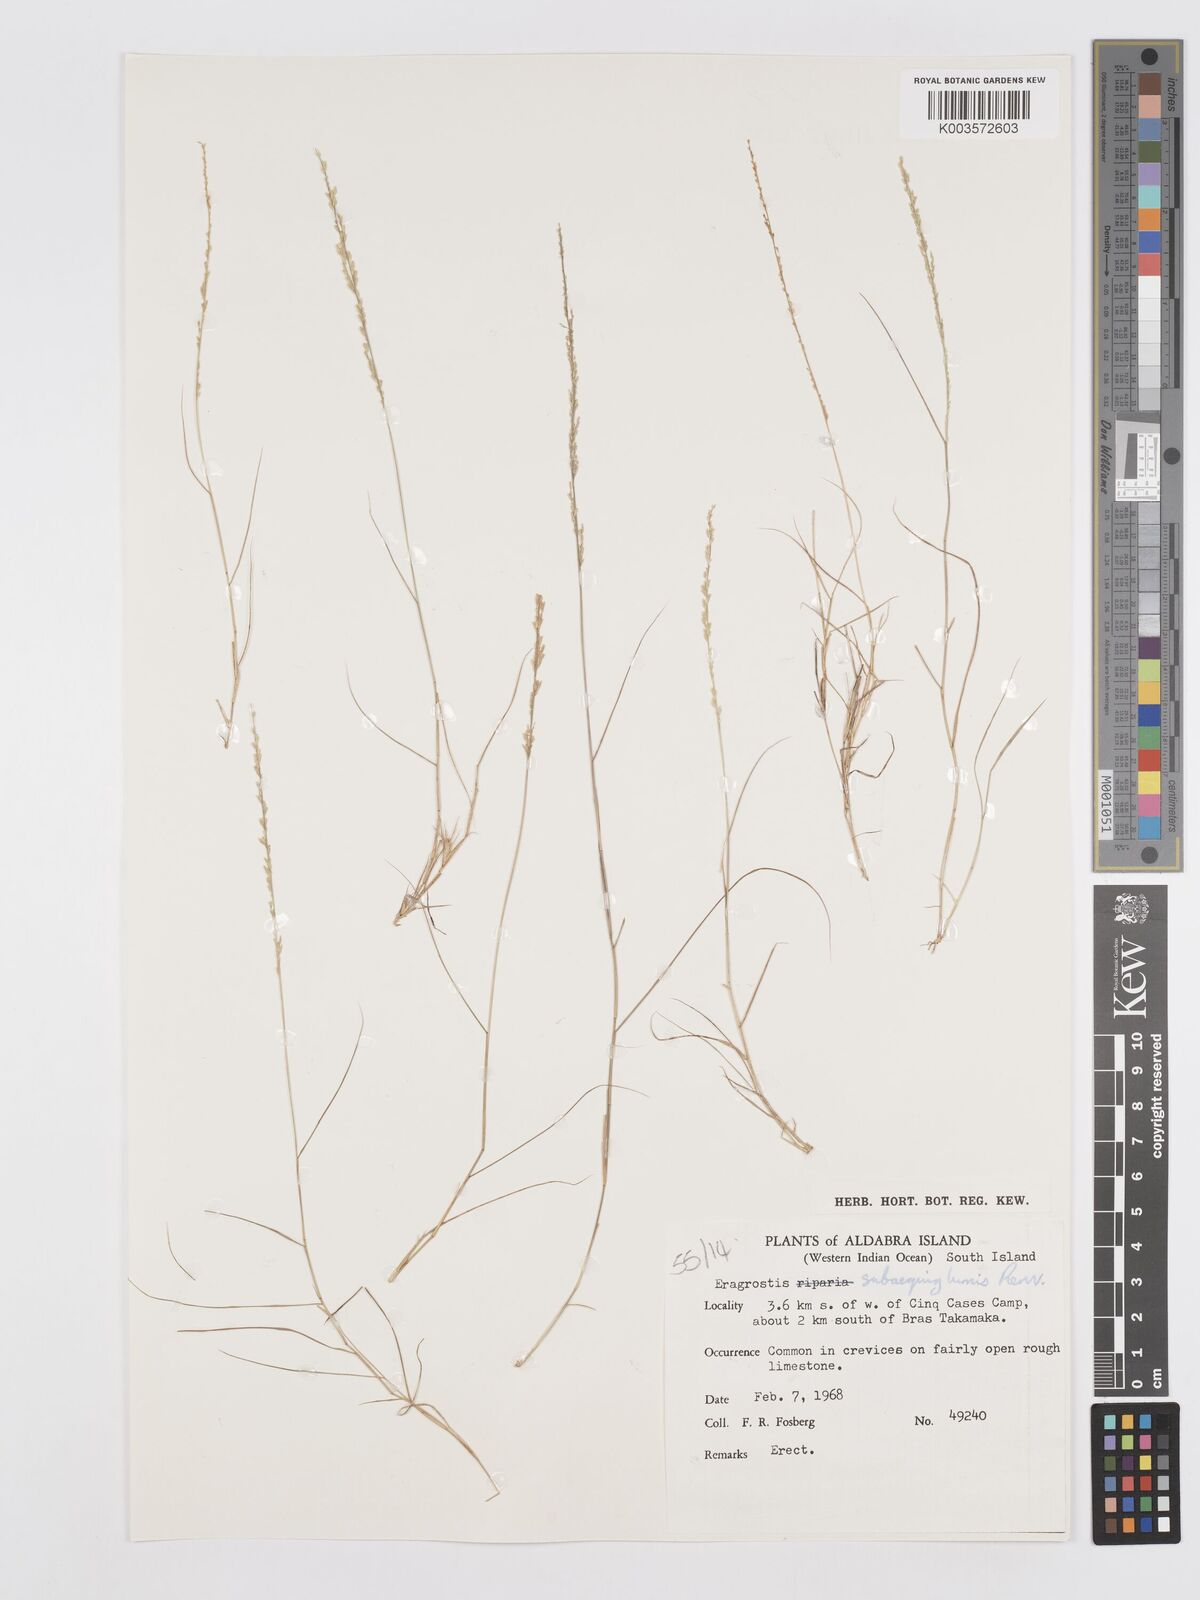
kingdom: Plantae
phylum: Tracheophyta
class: Liliopsida
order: Poales
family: Poaceae
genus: Eragrostis
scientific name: Eragrostis subaequiglumis
